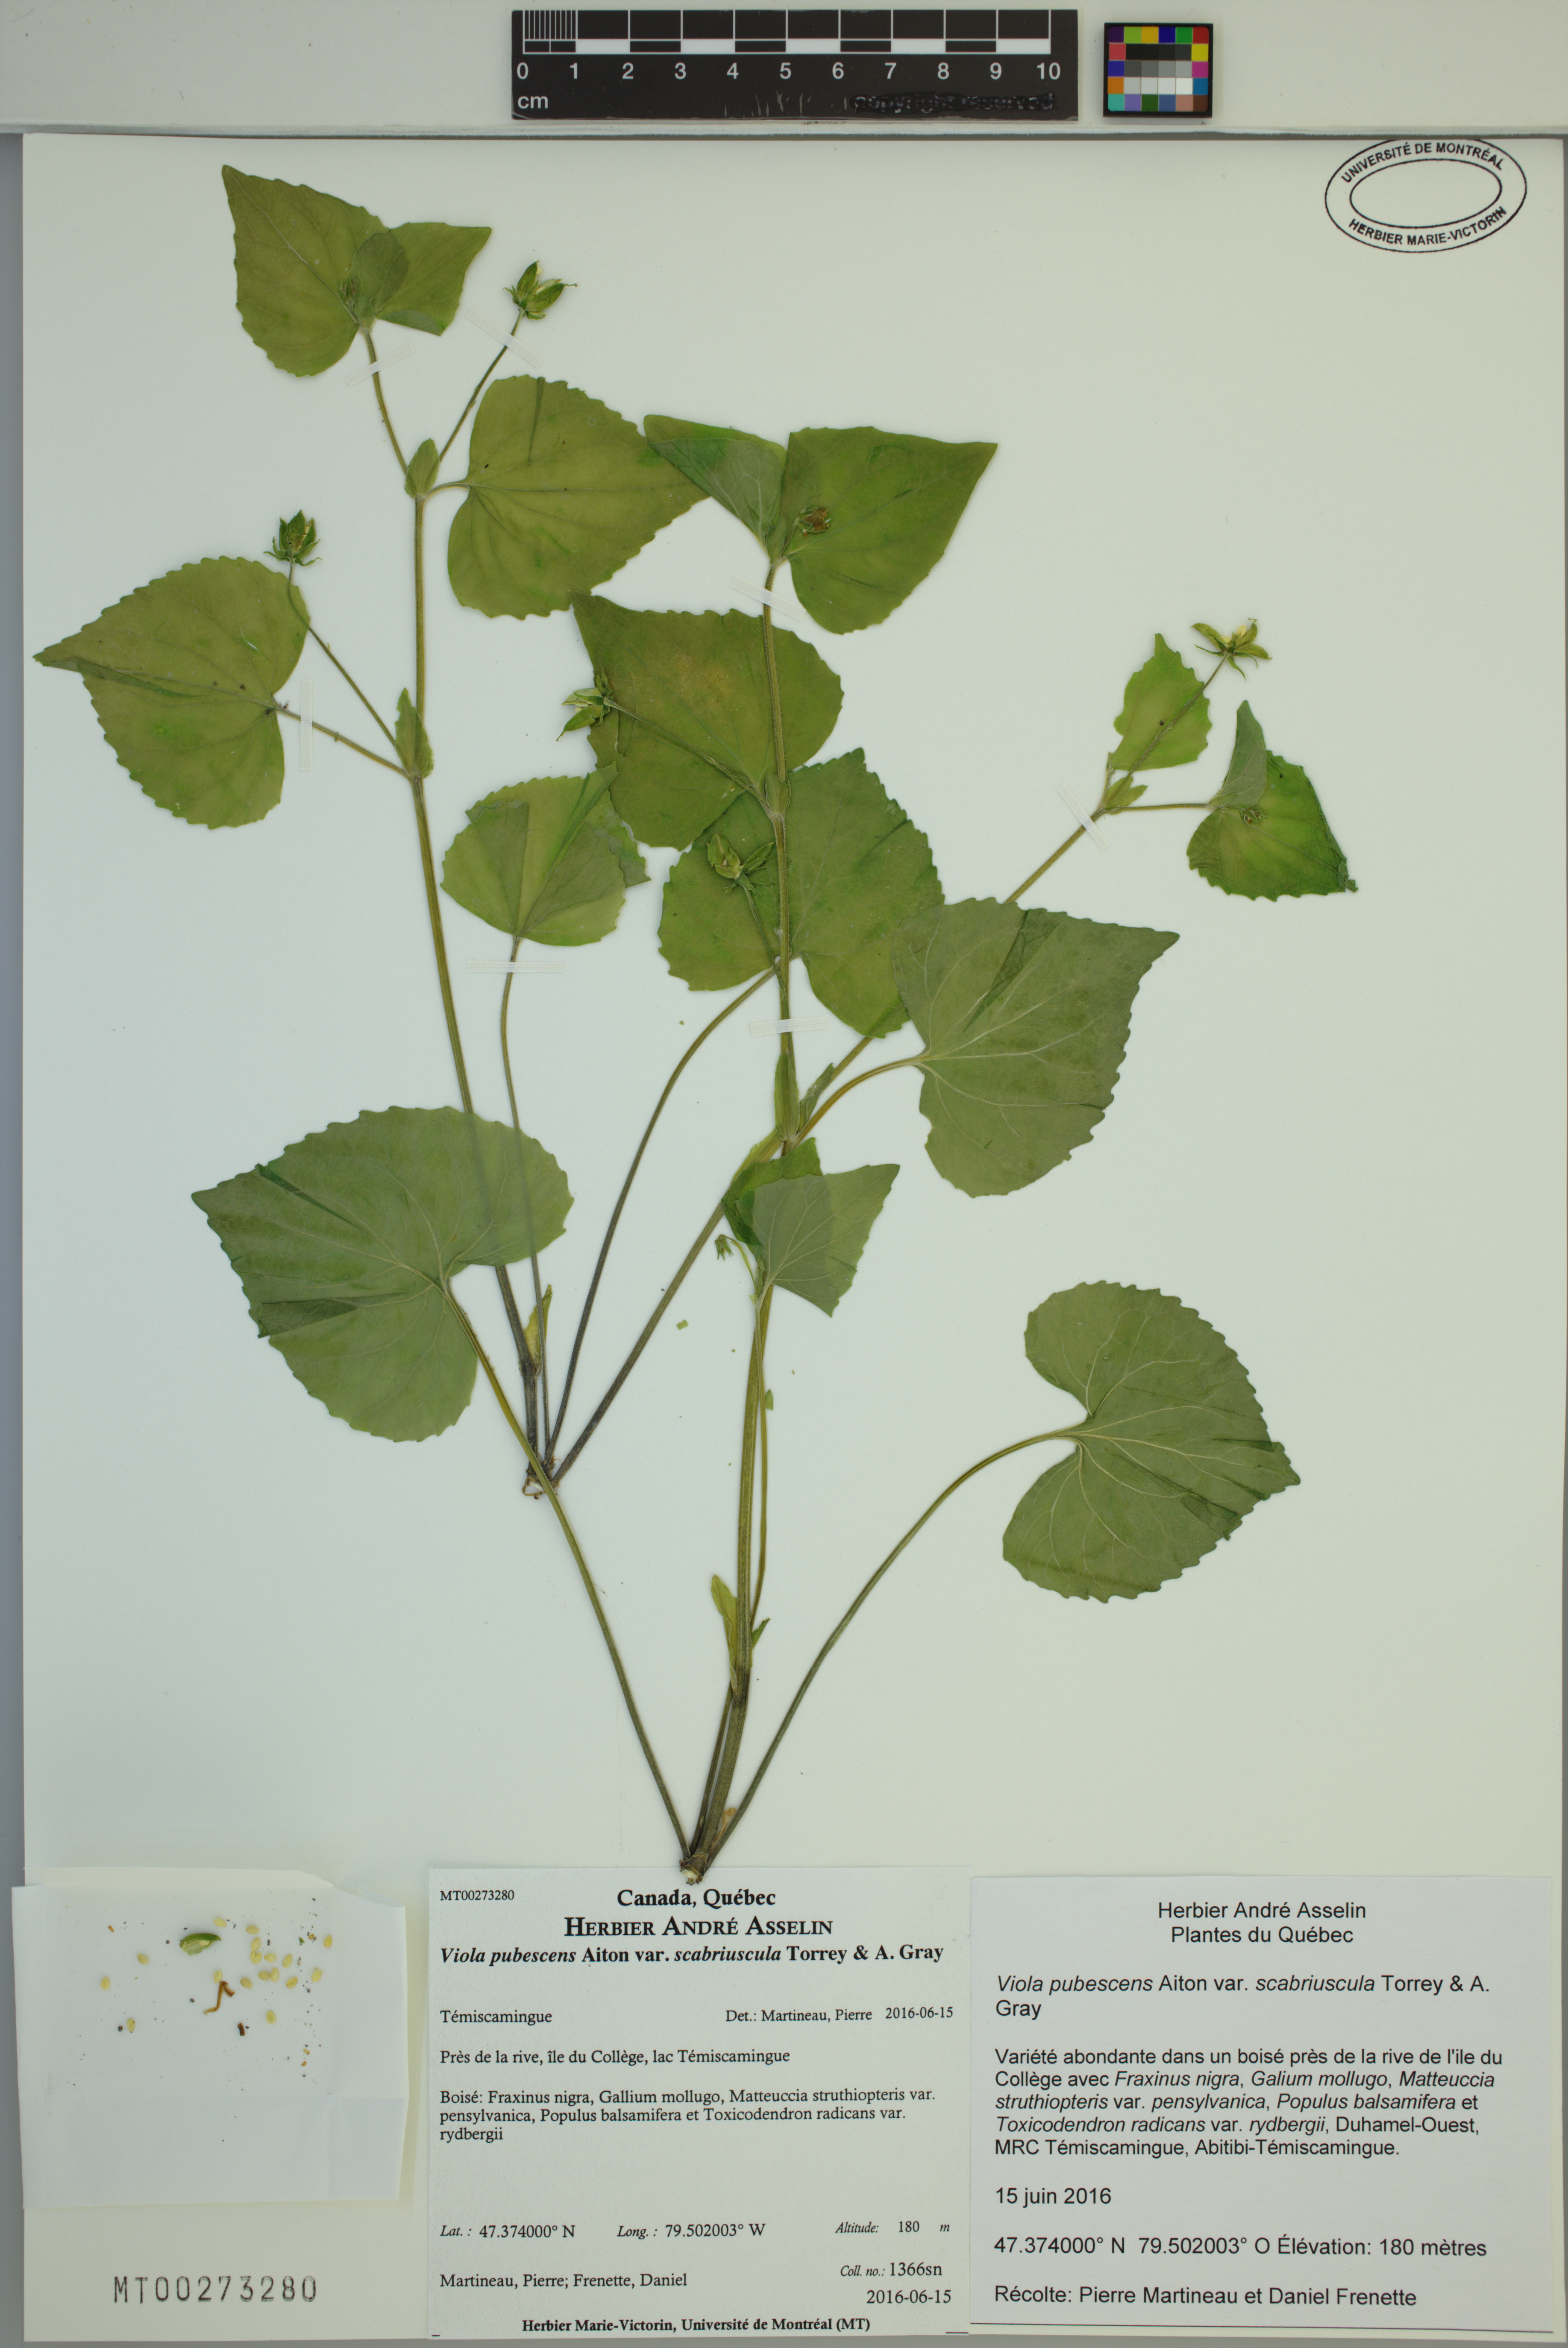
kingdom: Plantae
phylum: Tracheophyta
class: Magnoliopsida
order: Malpighiales
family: Violaceae
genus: Viola
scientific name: Viola eriocarpa
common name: Smooth yellow violet
